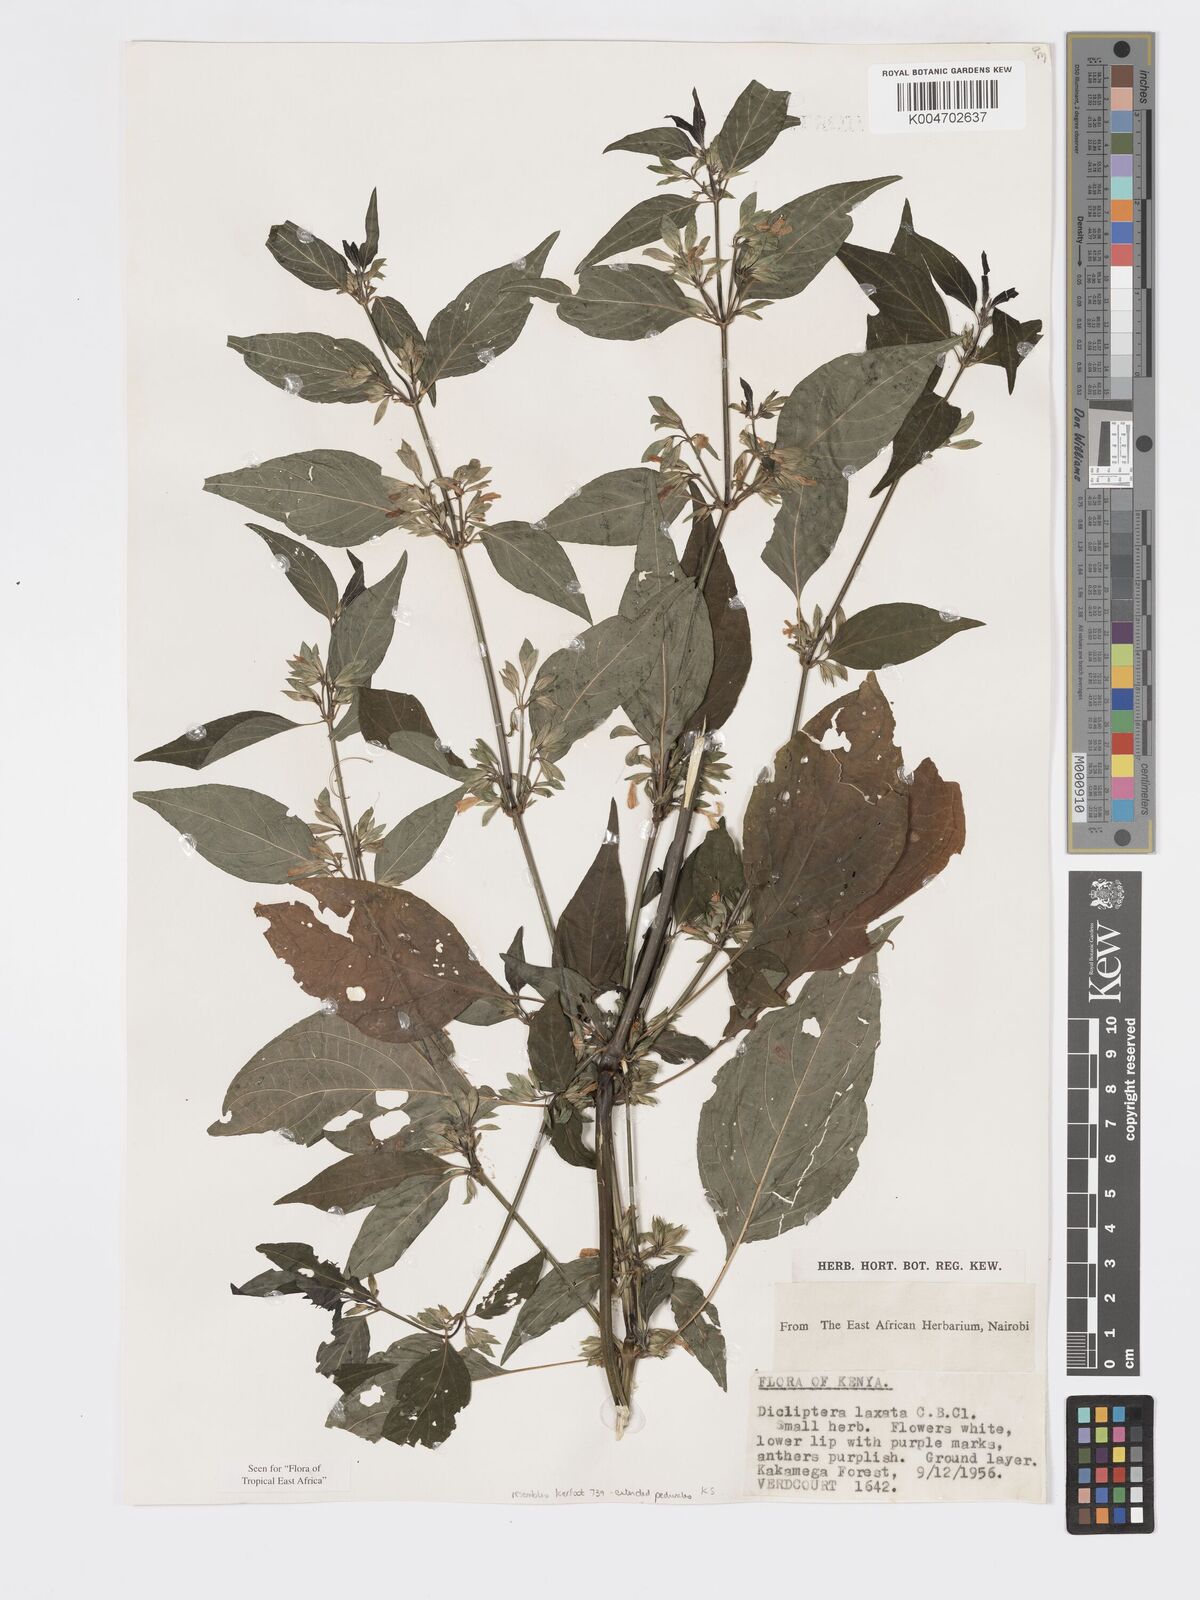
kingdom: Plantae
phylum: Tracheophyta
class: Magnoliopsida
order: Lamiales
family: Acanthaceae
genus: Dicliptera
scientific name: Dicliptera laxata
